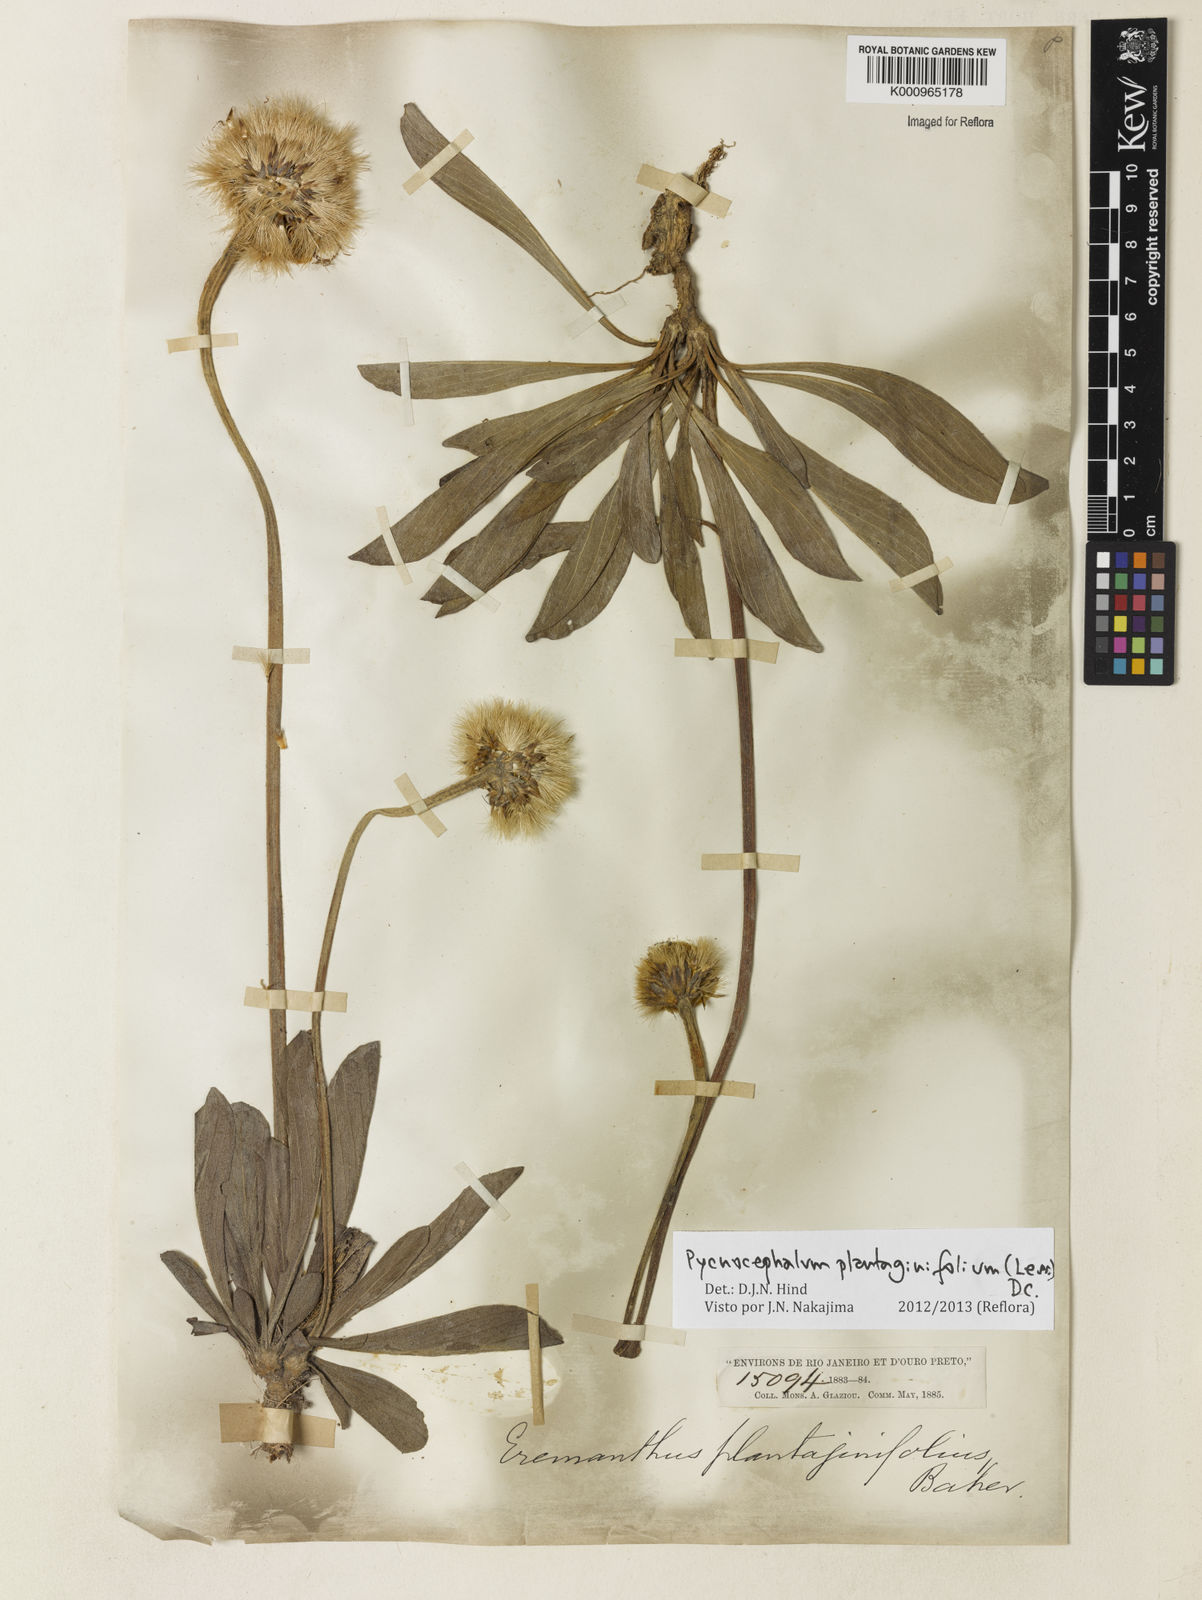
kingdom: Plantae
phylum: Tracheophyta
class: Magnoliopsida
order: Asterales
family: Asteraceae
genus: Chresta
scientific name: Chresta plantaginifolia
